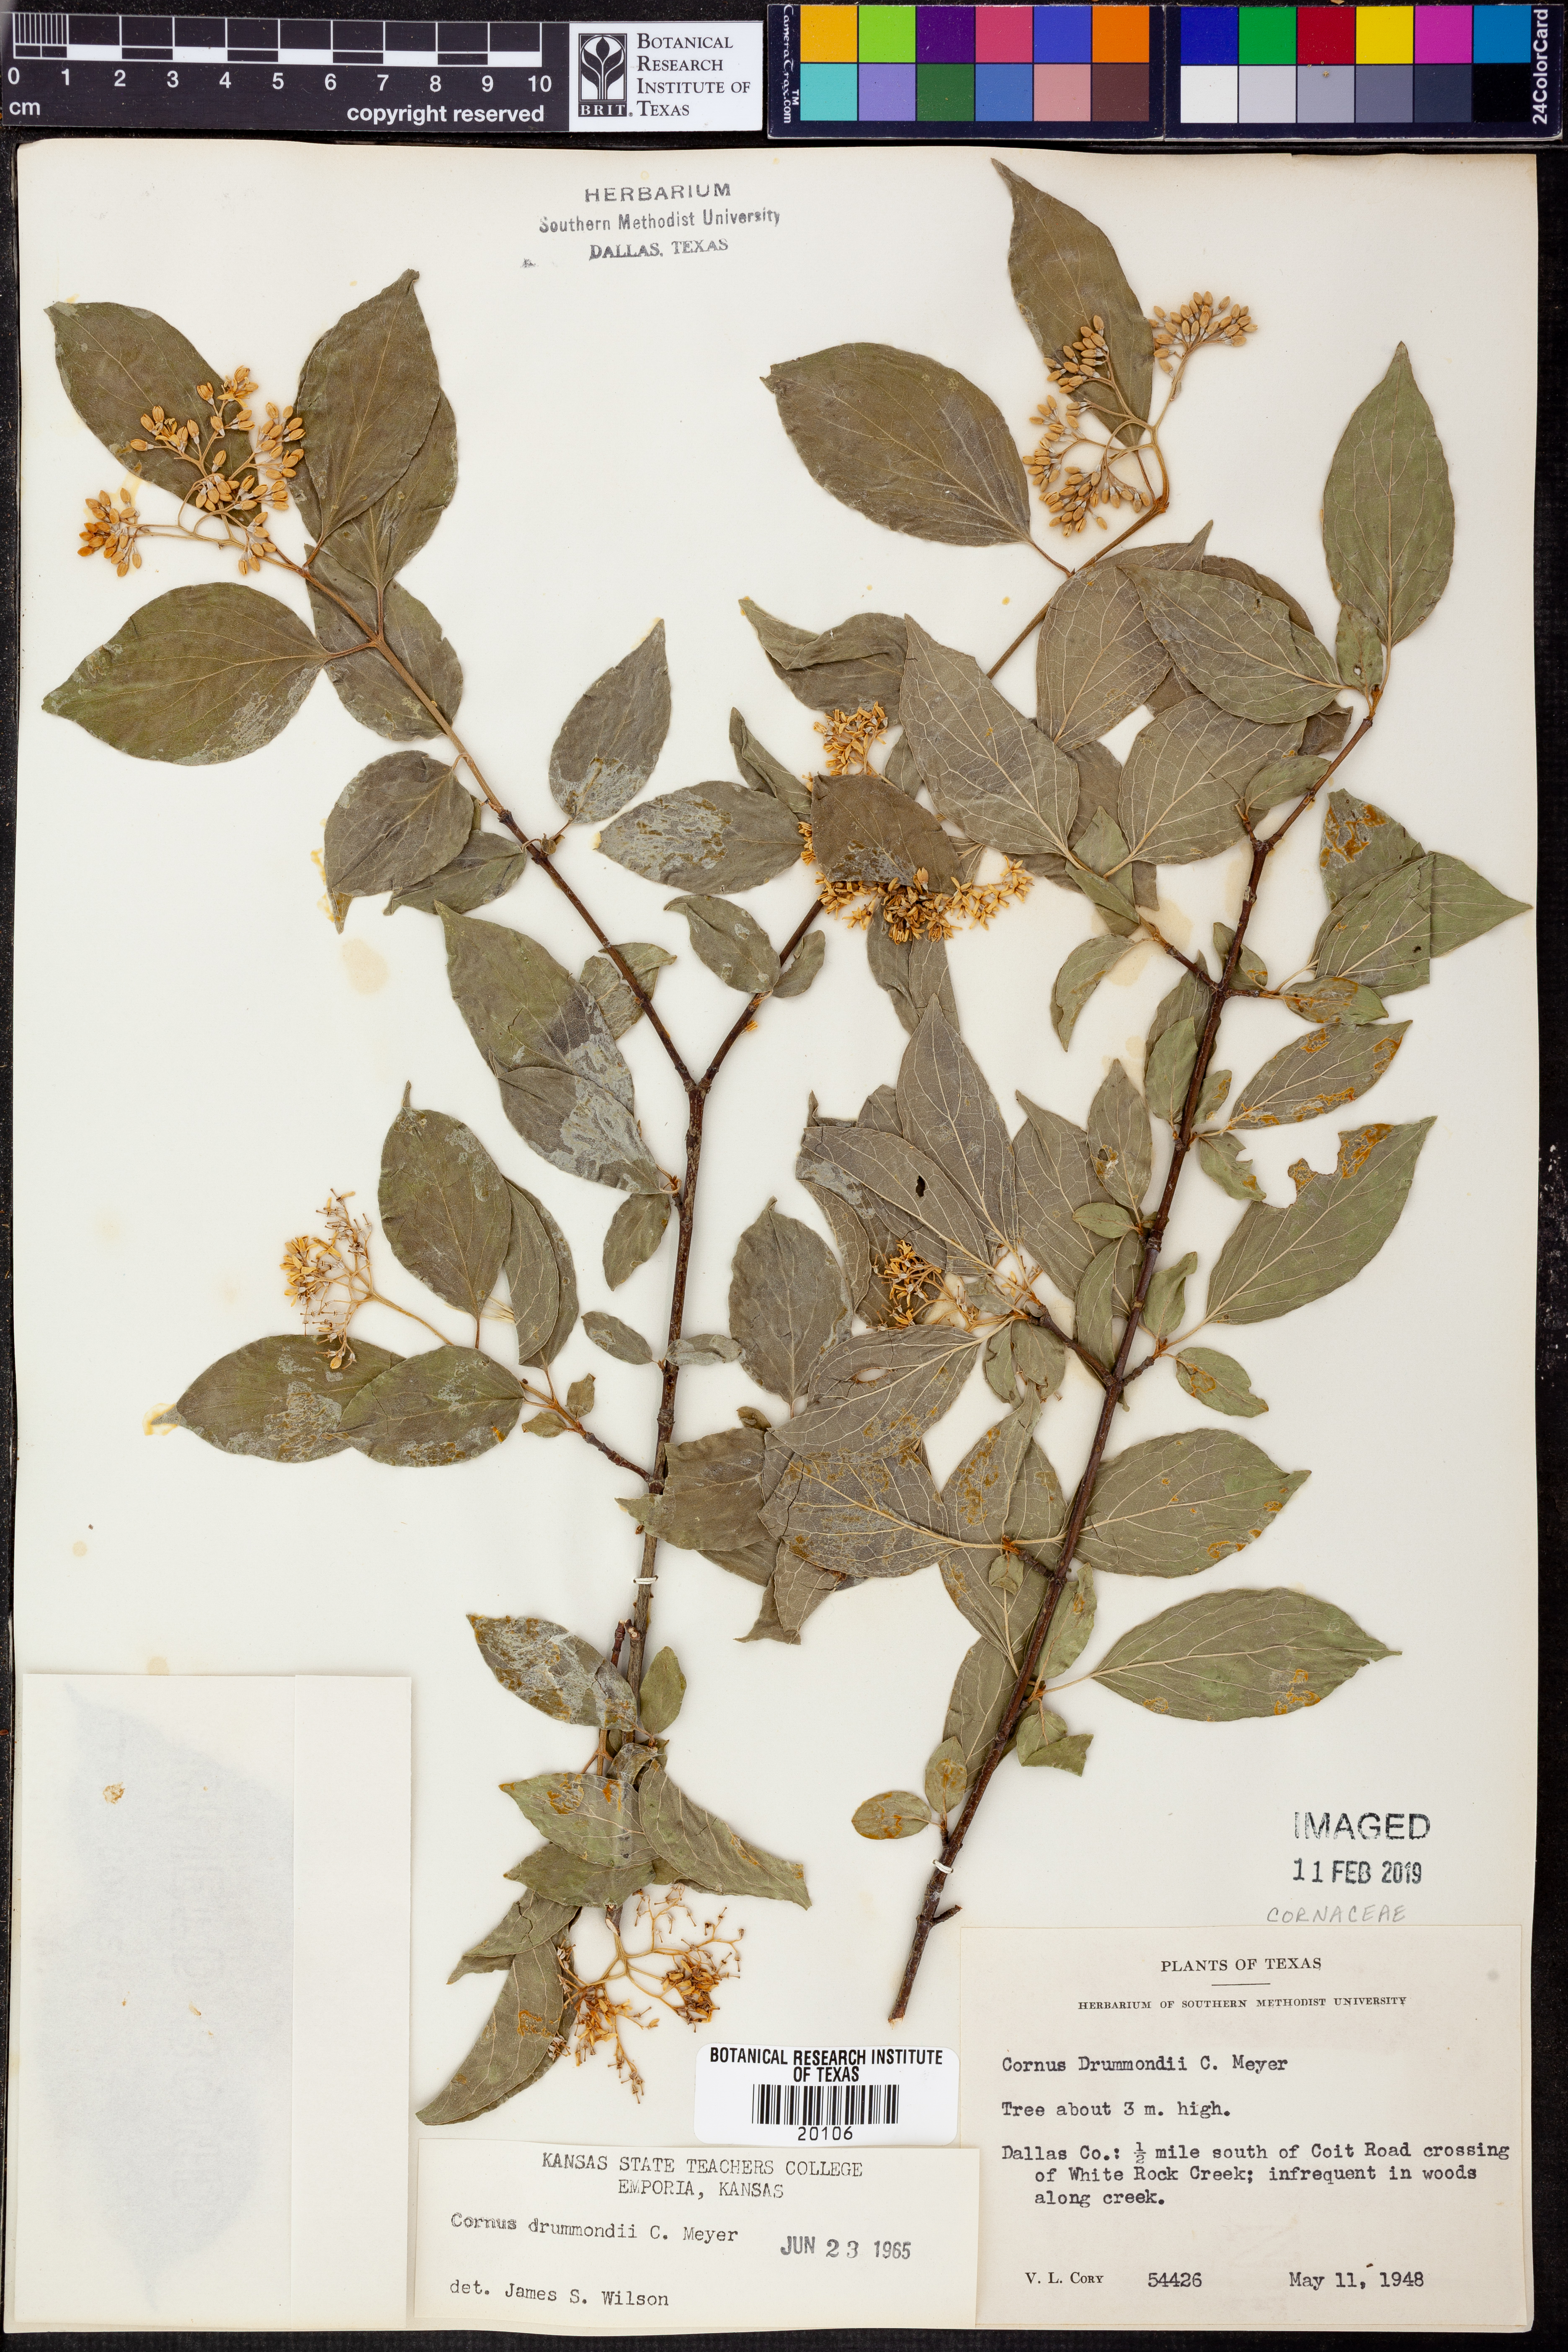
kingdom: Plantae
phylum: Tracheophyta
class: Magnoliopsida
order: Cornales
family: Cornaceae
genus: Cornus
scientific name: Cornus drummondii
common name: Rough-leaf dogwood
